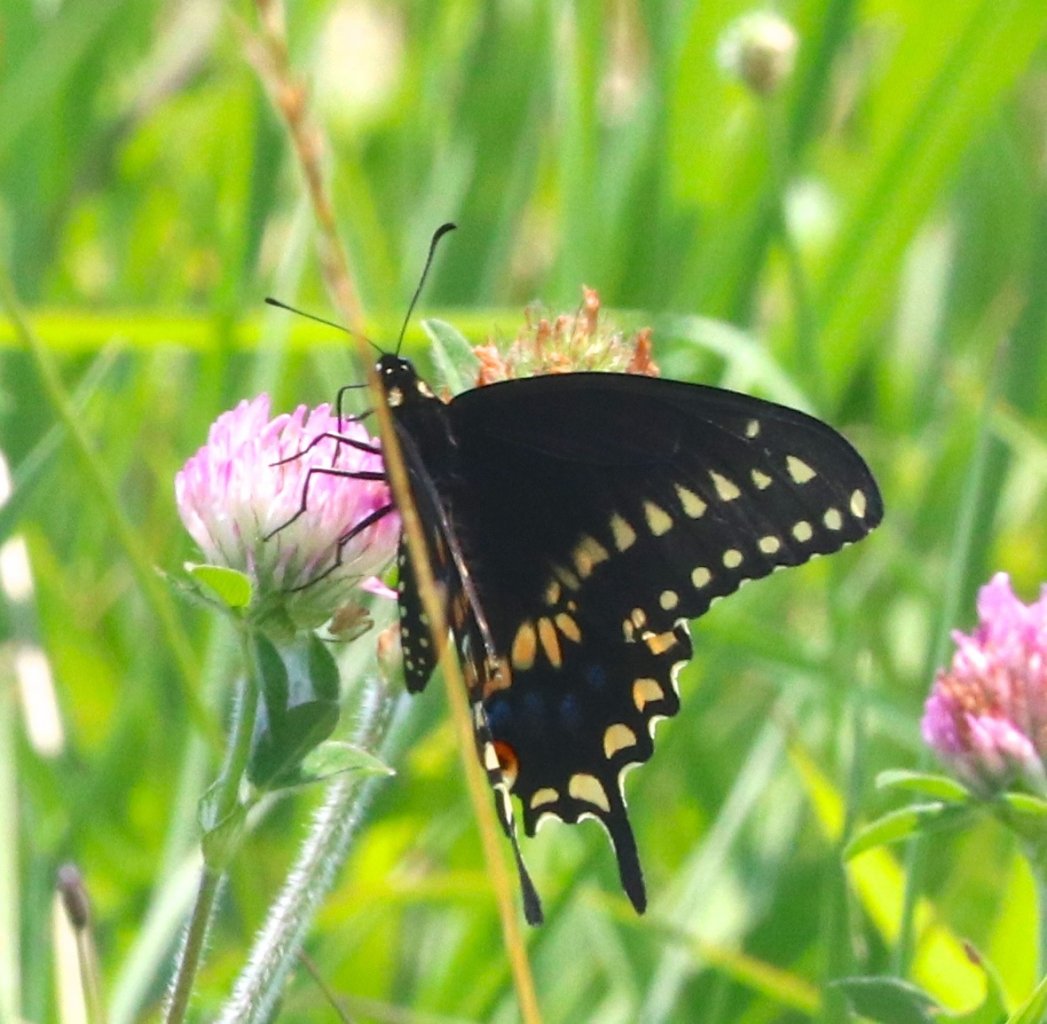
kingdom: Animalia
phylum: Arthropoda
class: Insecta
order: Lepidoptera
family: Papilionidae
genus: Papilio
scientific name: Papilio polyxenes
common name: Black Swallowtail
